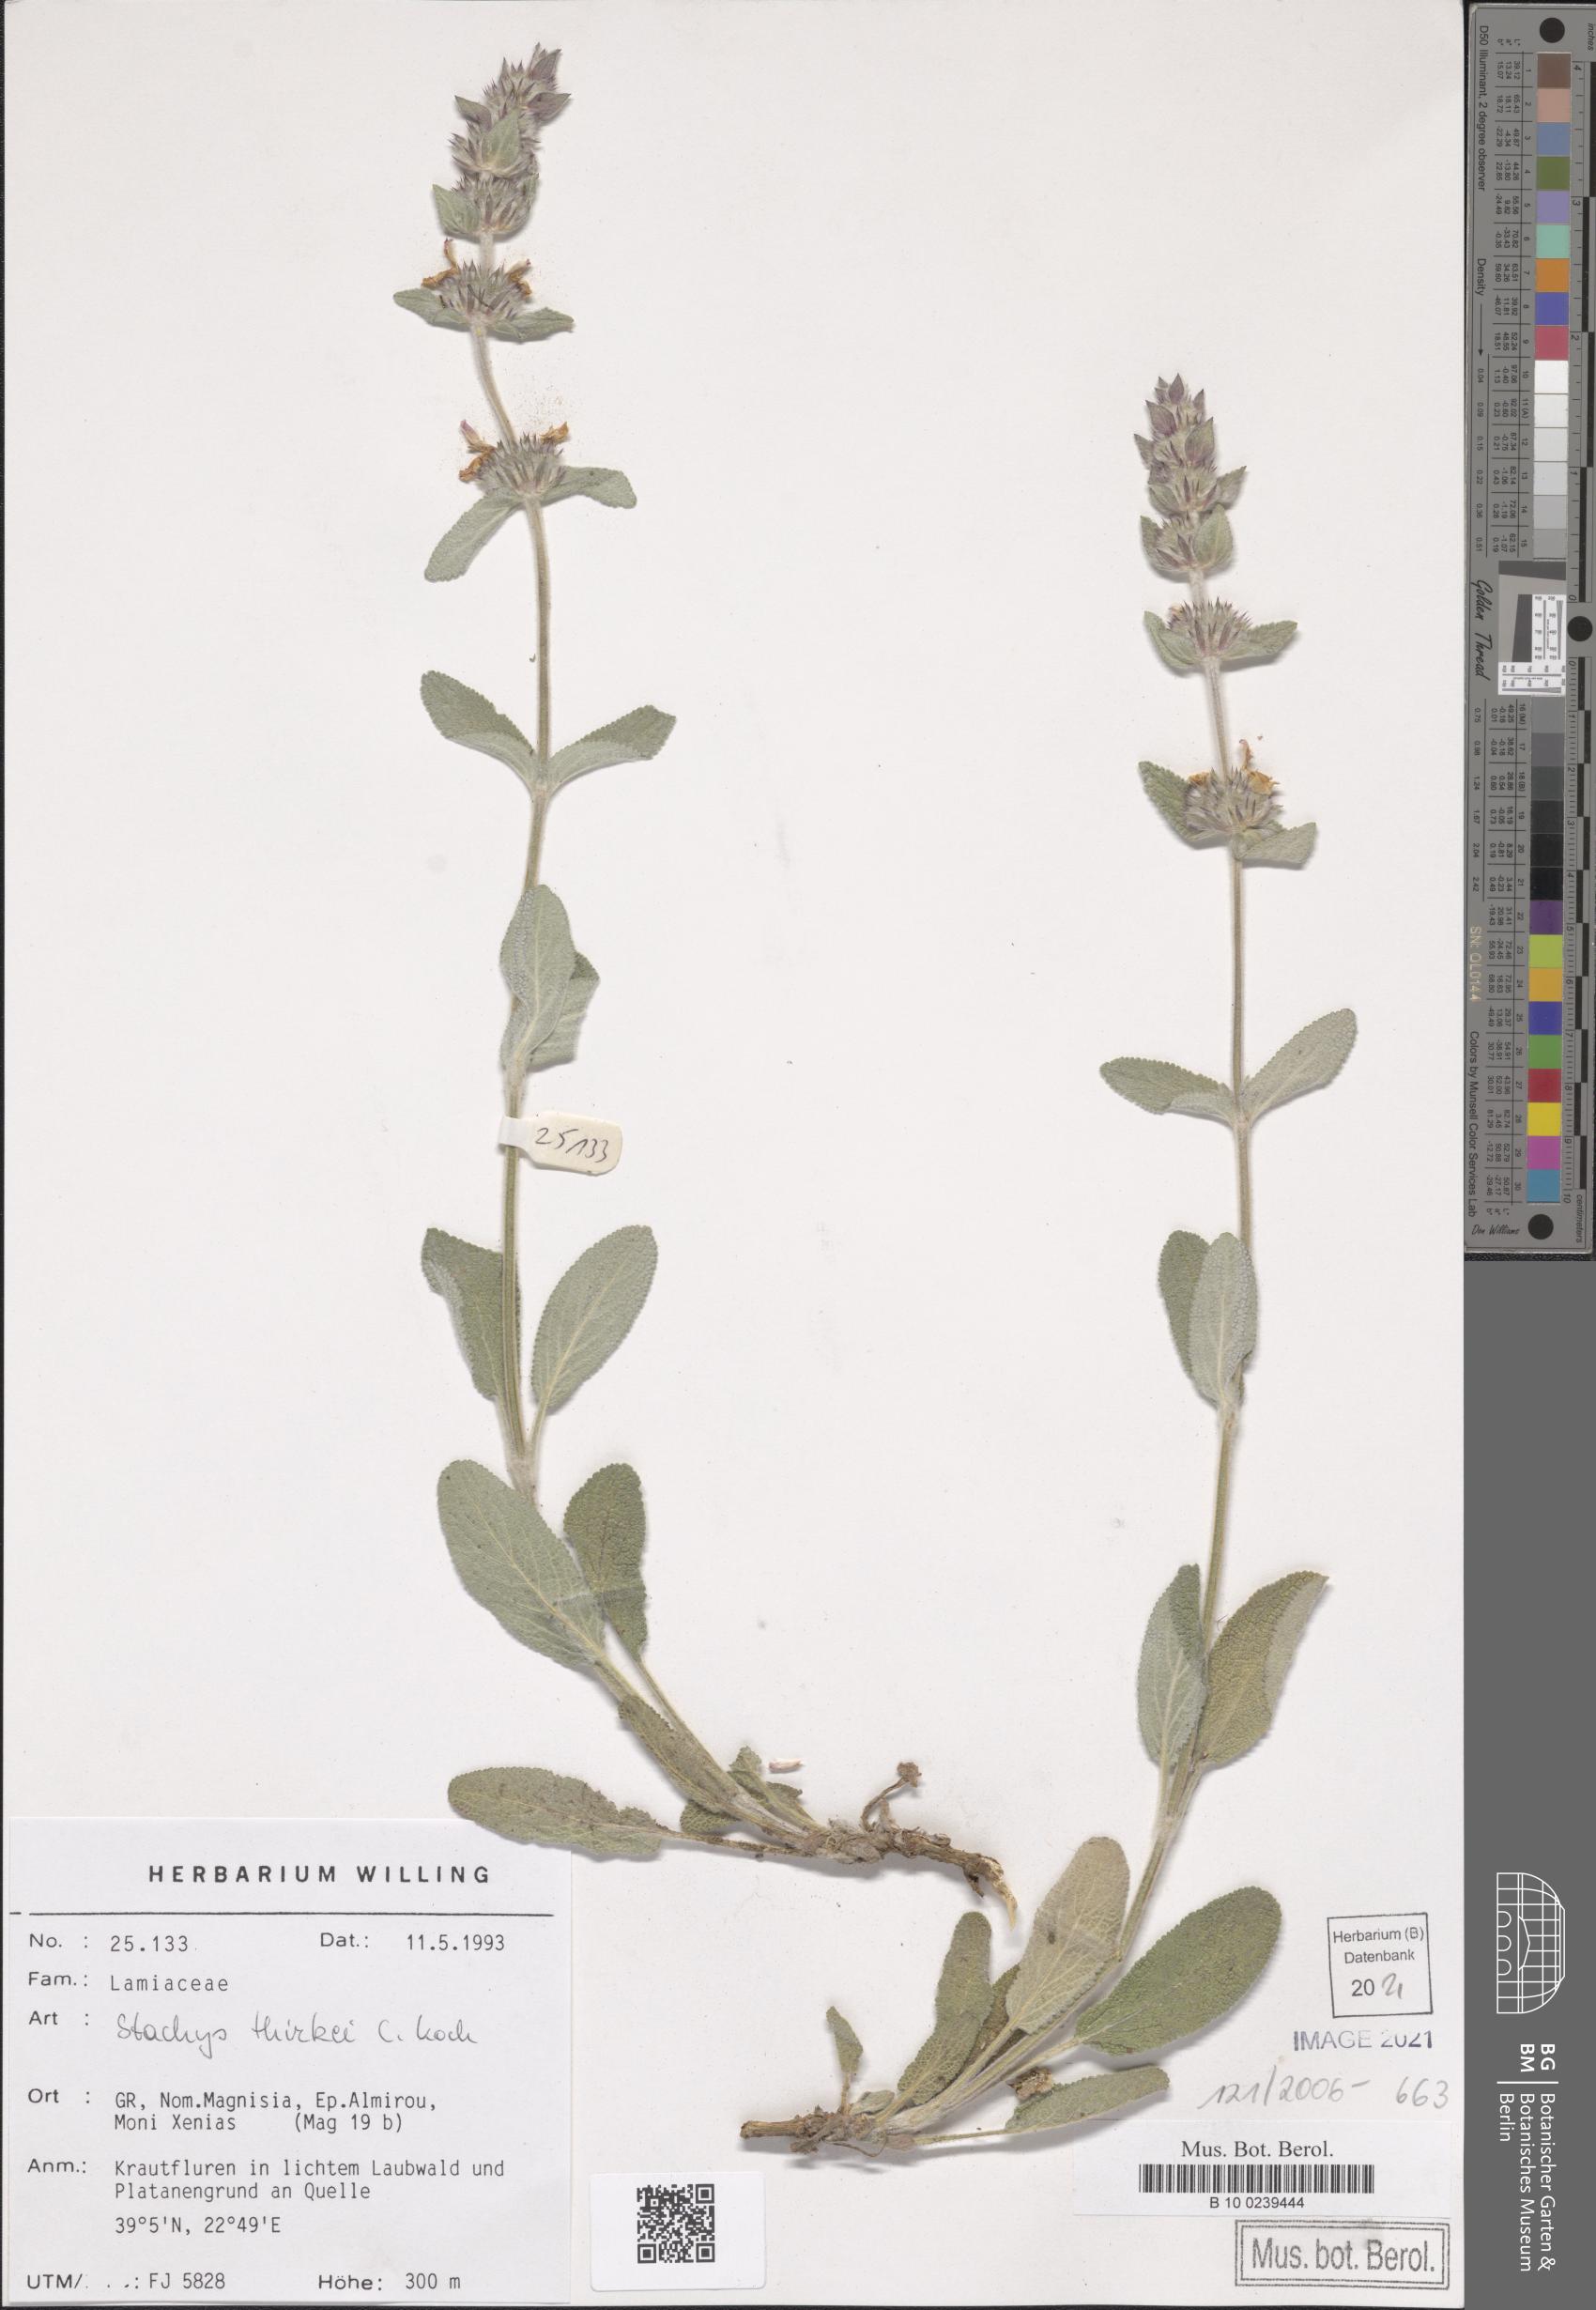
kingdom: Plantae
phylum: Tracheophyta
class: Magnoliopsida
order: Lamiales
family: Lamiaceae
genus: Stachys
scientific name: Stachys thirkei
